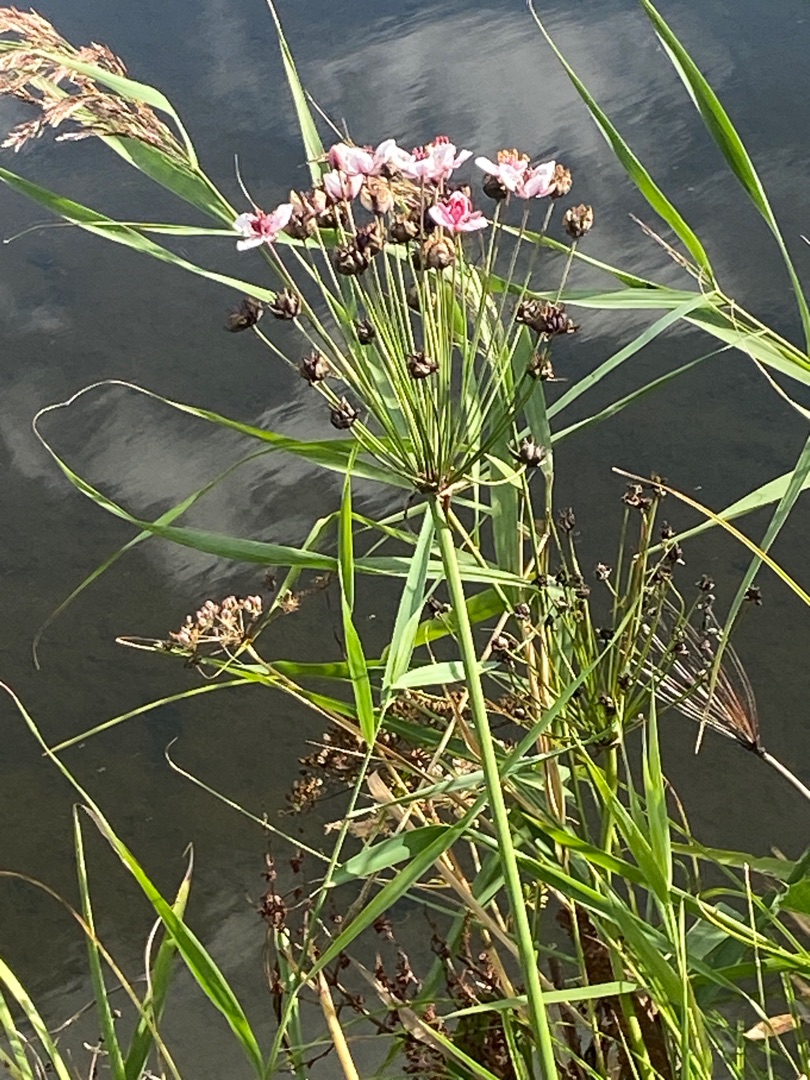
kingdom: Plantae
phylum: Tracheophyta
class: Liliopsida
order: Alismatales
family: Butomaceae
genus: Butomus
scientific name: Butomus umbellatus
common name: Brudelys
